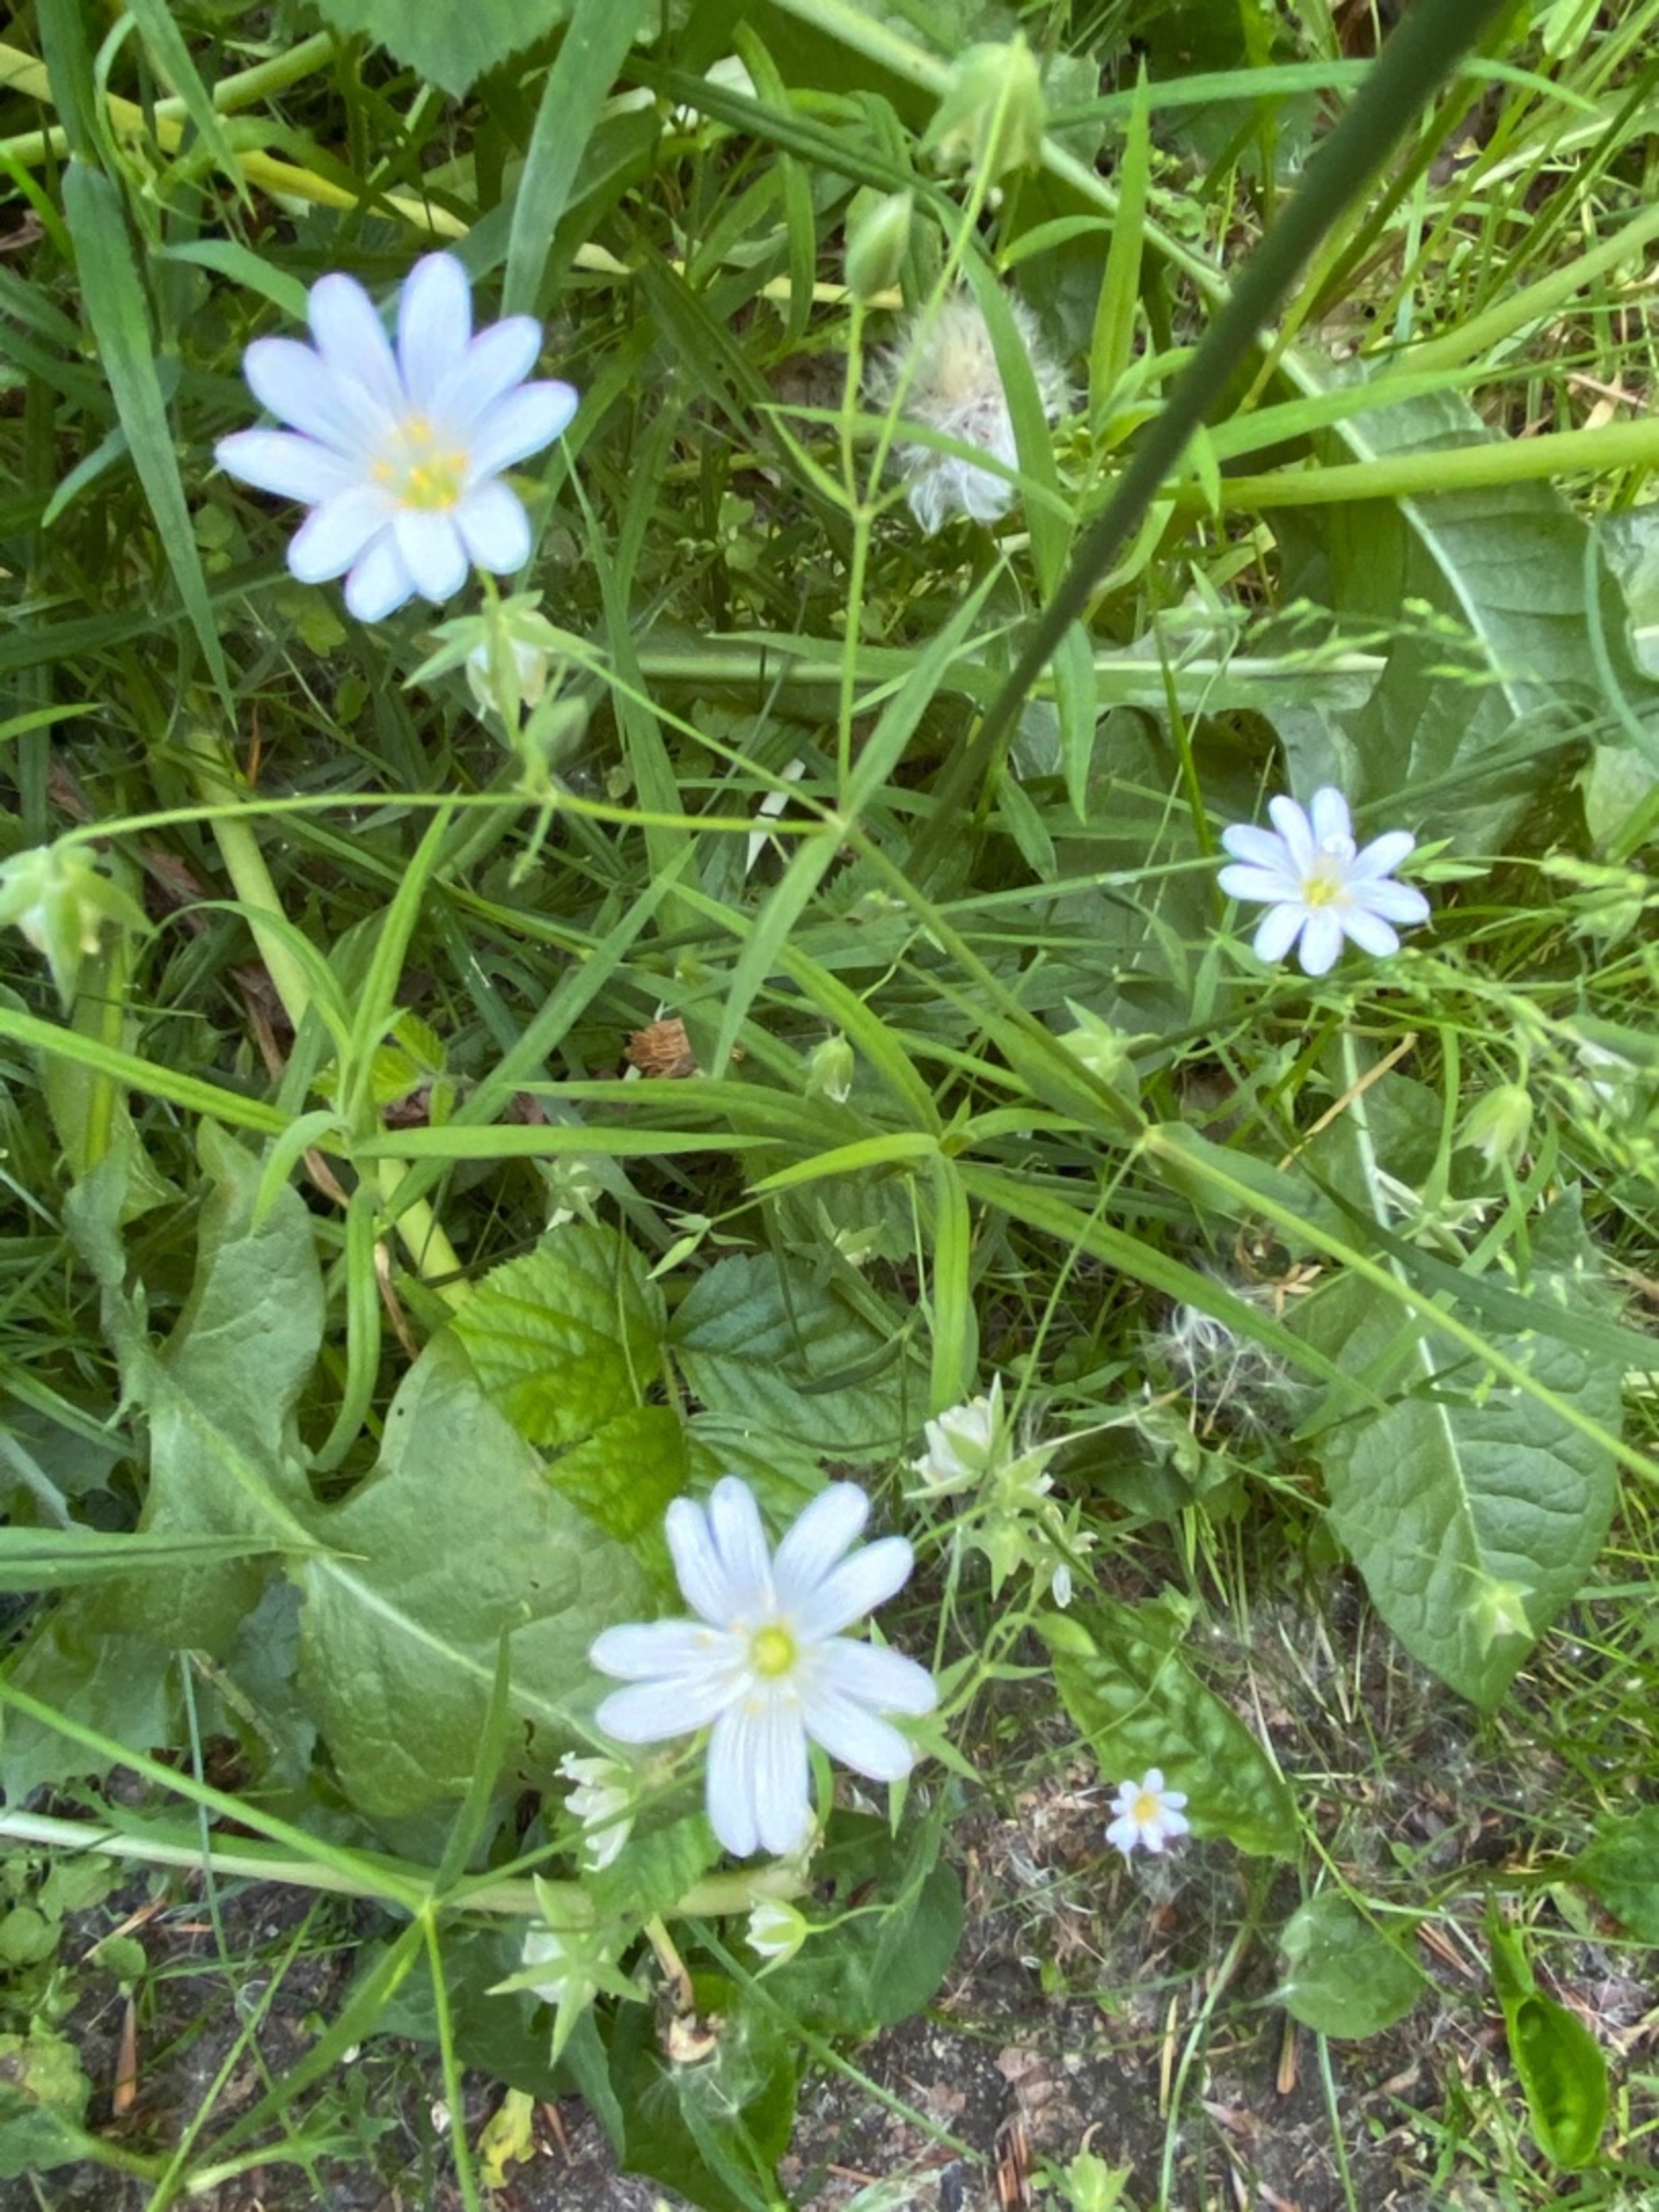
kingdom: Plantae
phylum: Tracheophyta
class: Magnoliopsida
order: Caryophyllales
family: Caryophyllaceae
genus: Rabelera
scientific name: Rabelera holostea
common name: Stor fladstjerne
